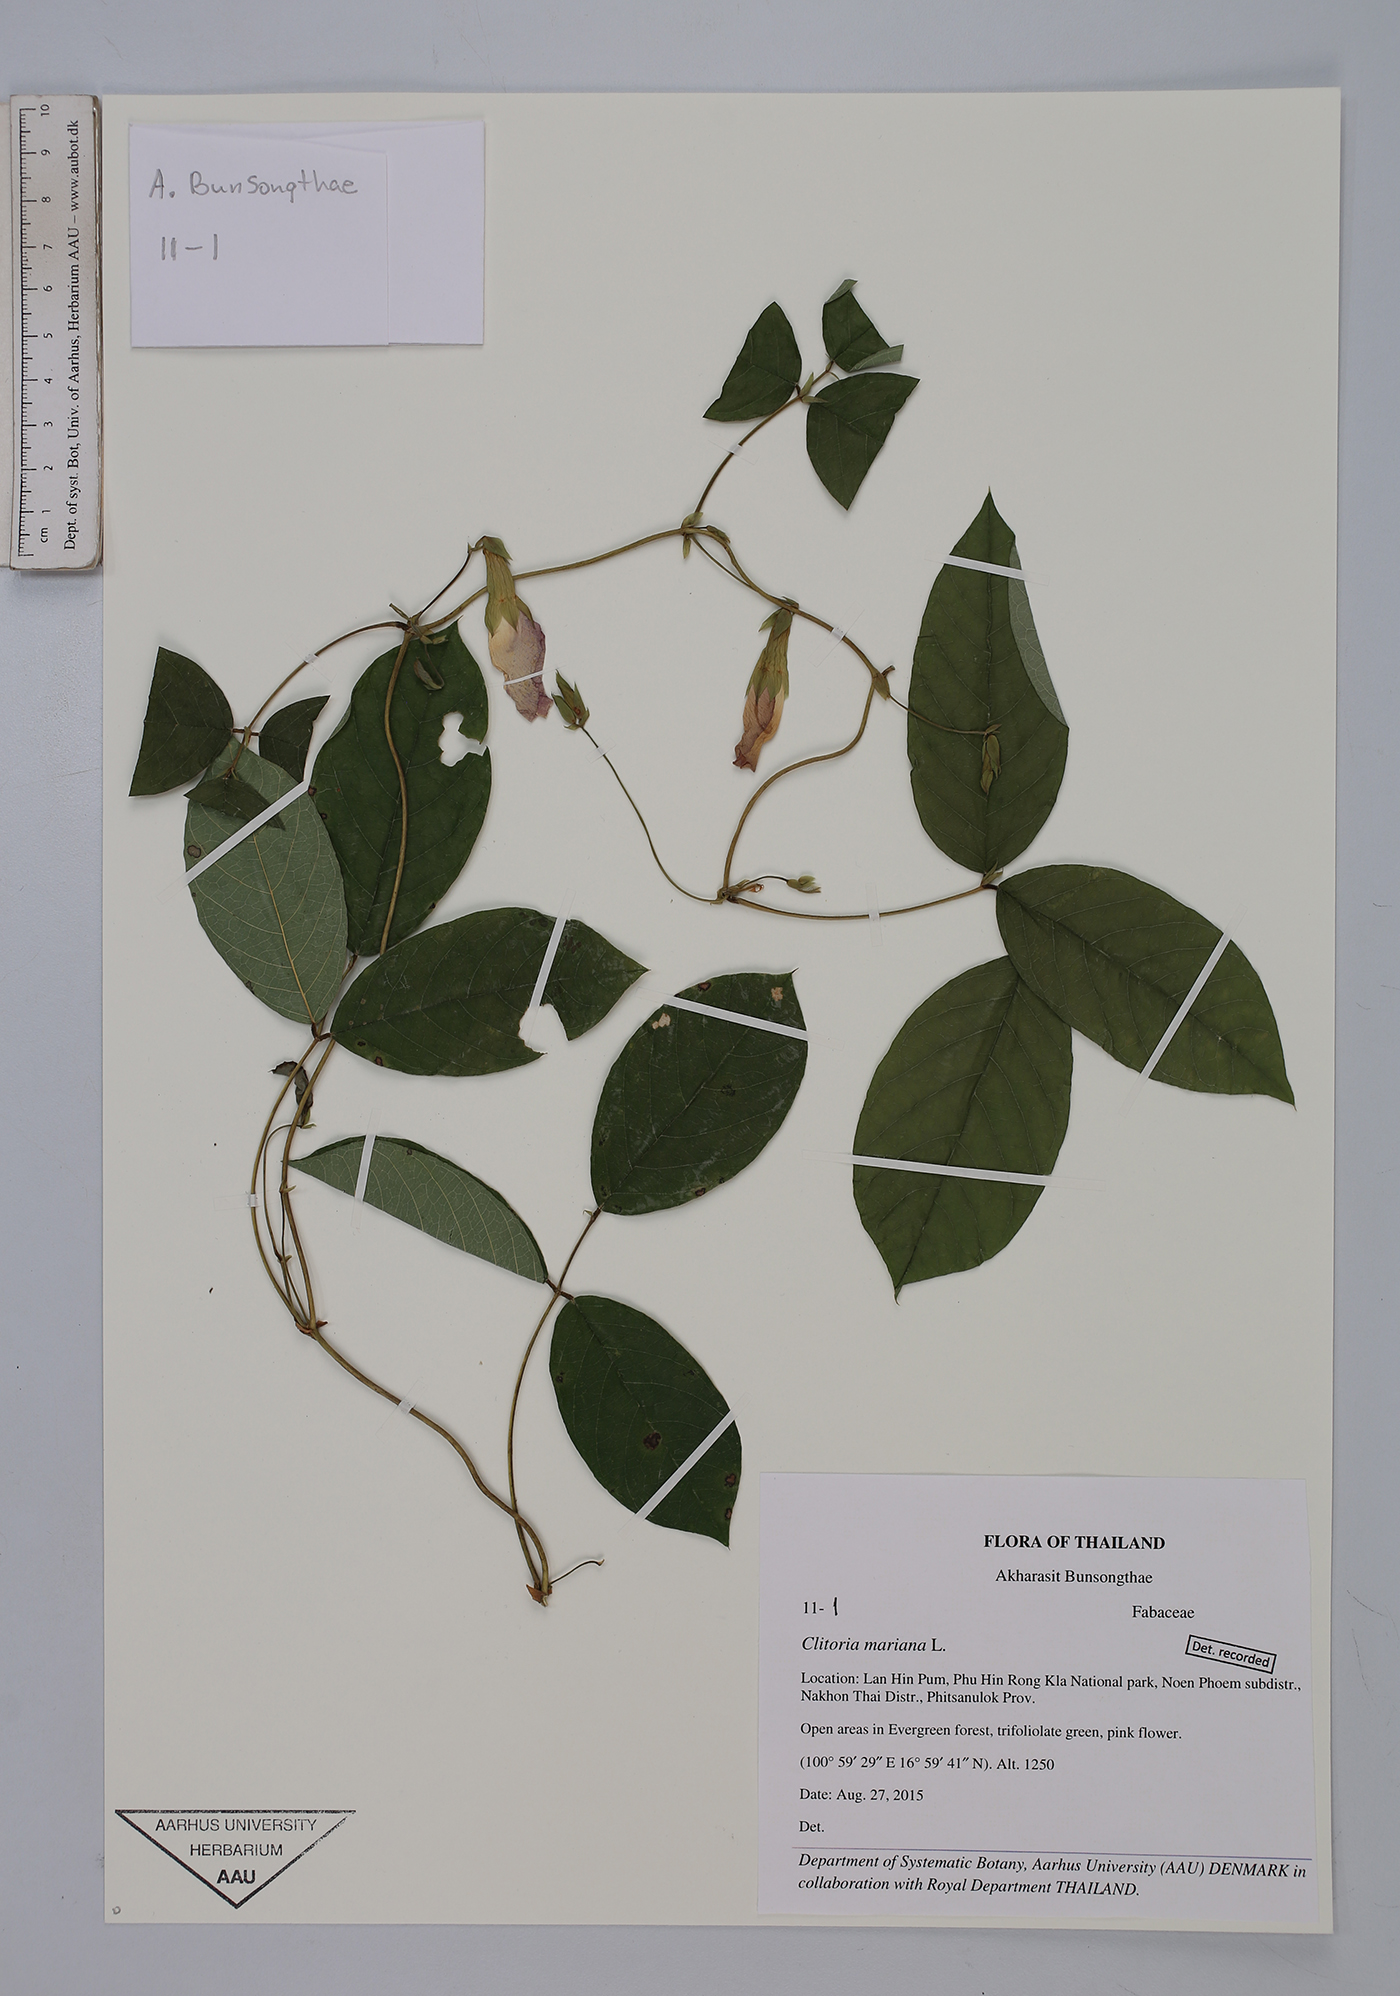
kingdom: Plantae
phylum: Tracheophyta
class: Magnoliopsida
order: Fabales
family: Fabaceae
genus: Clitoria
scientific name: Clitoria mariana
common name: Butterfly-pea
